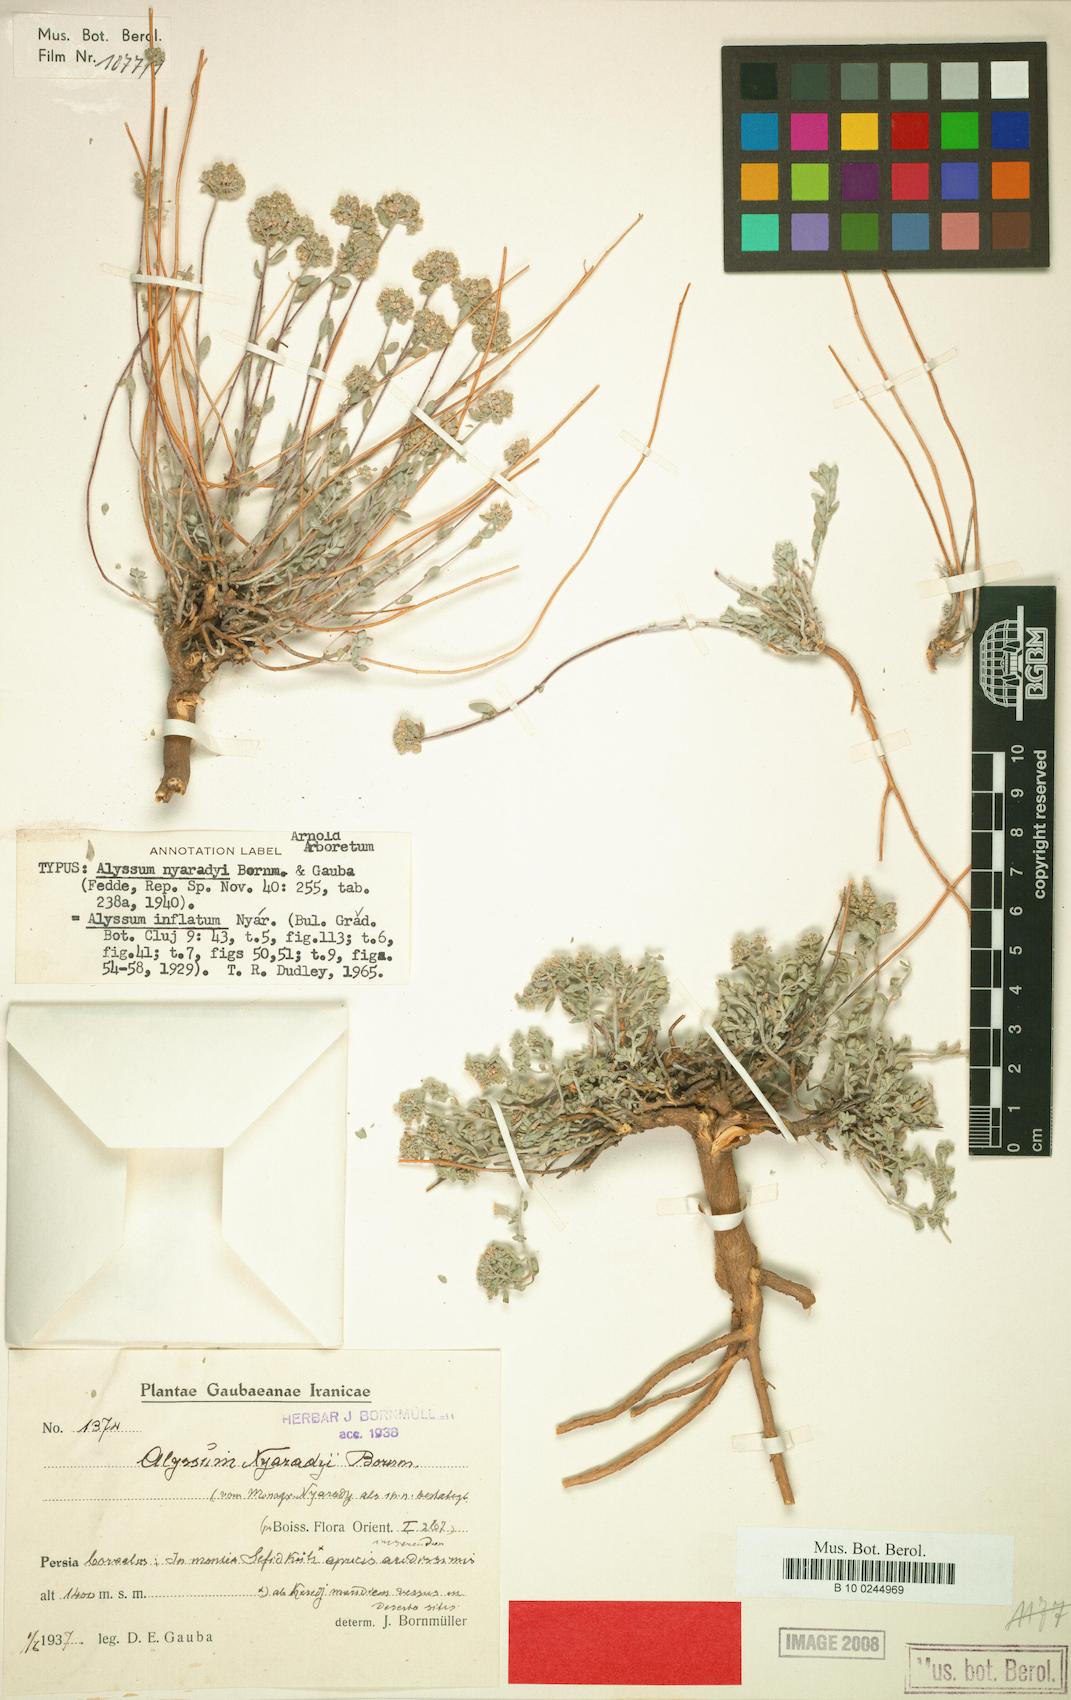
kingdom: Plantae
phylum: Tracheophyta
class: Magnoliopsida
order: Brassicales
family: Brassicaceae
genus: Odontarrhena
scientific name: Odontarrhena inflata
